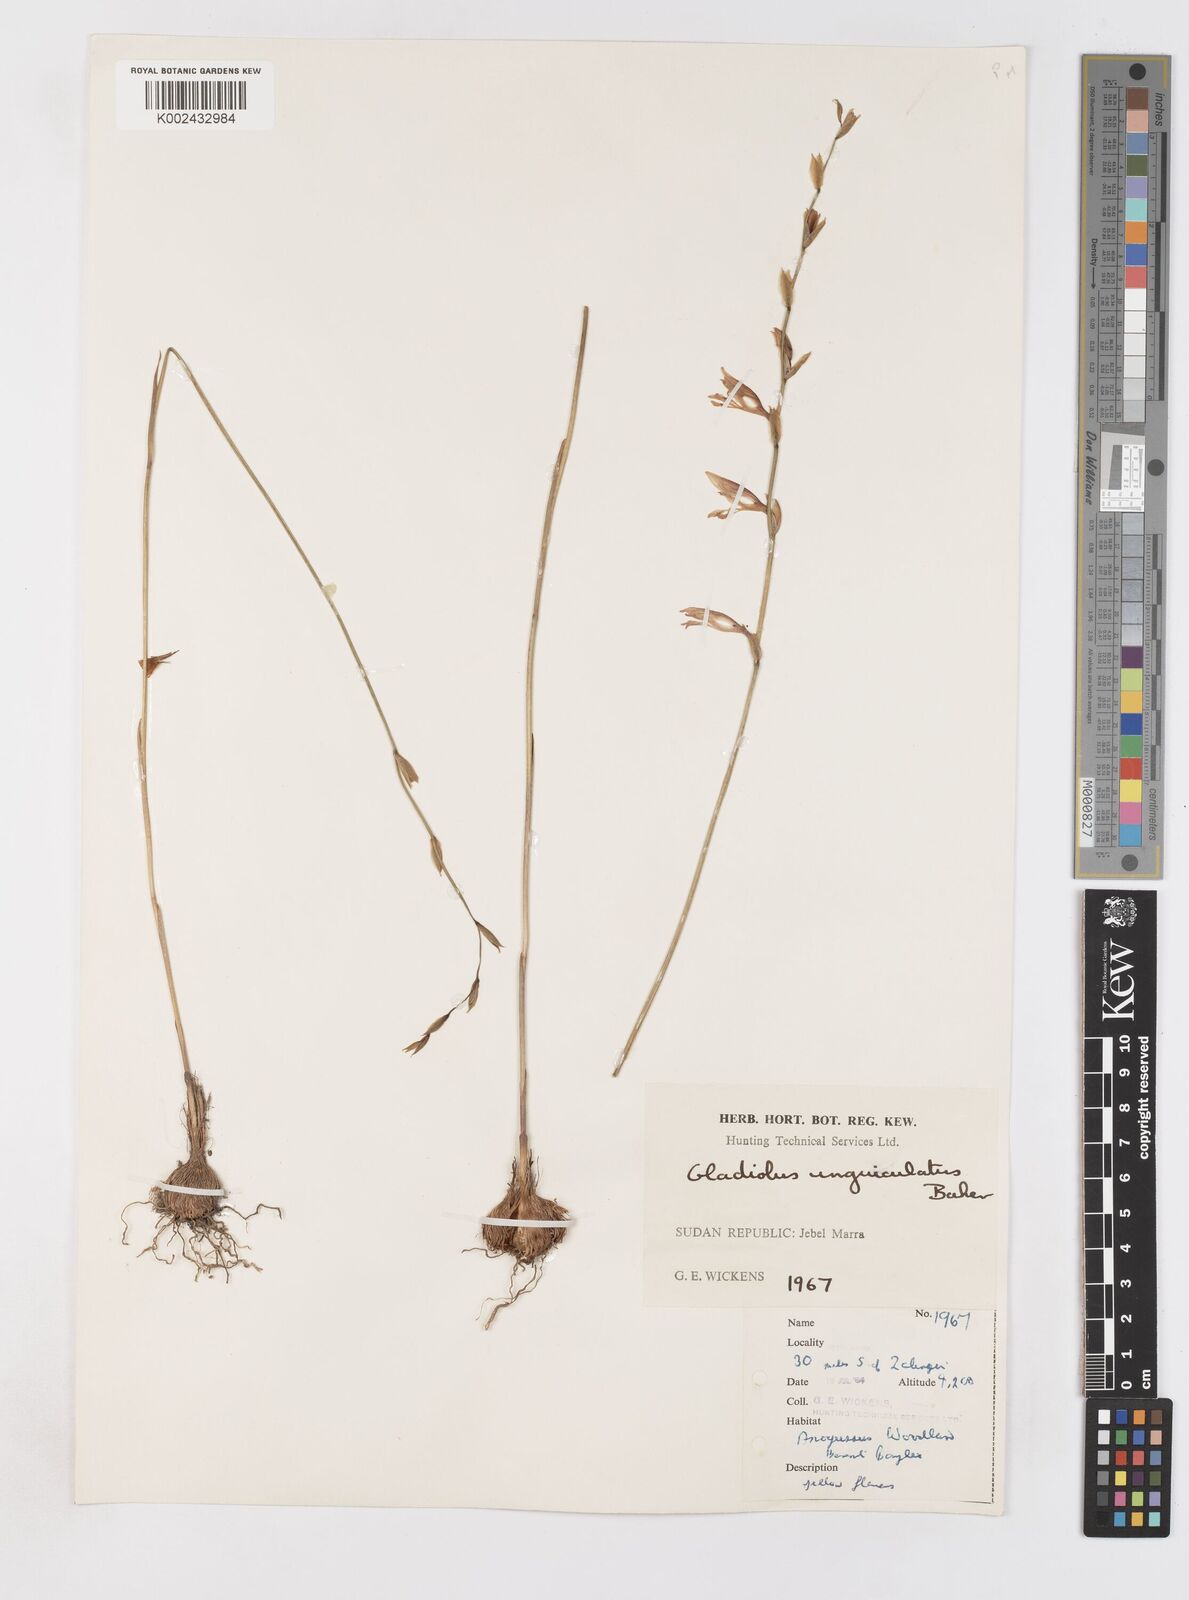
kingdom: Plantae
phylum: Tracheophyta
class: Liliopsida
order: Asparagales
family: Iridaceae
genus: Gladiolus
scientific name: Gladiolus unguiculatus
